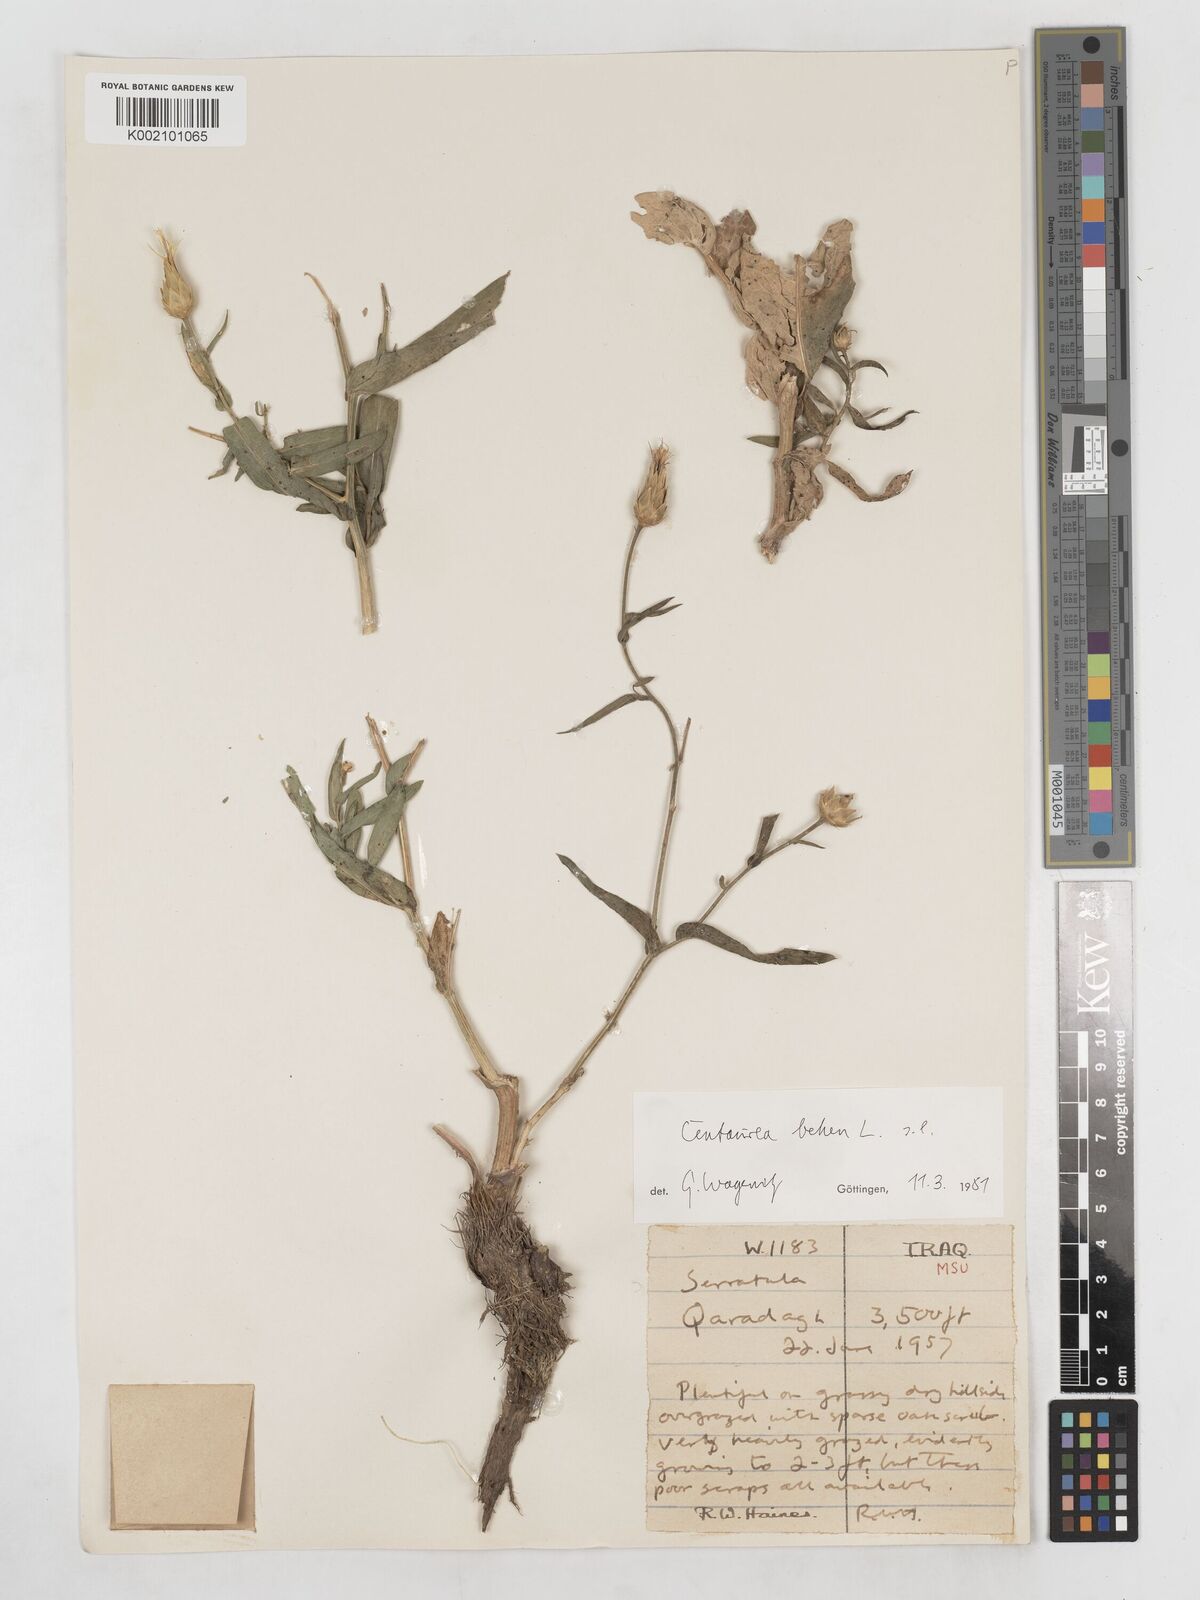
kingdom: Plantae
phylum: Tracheophyta
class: Magnoliopsida
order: Asterales
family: Asteraceae
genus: Centaurea
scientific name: Centaurea behen
